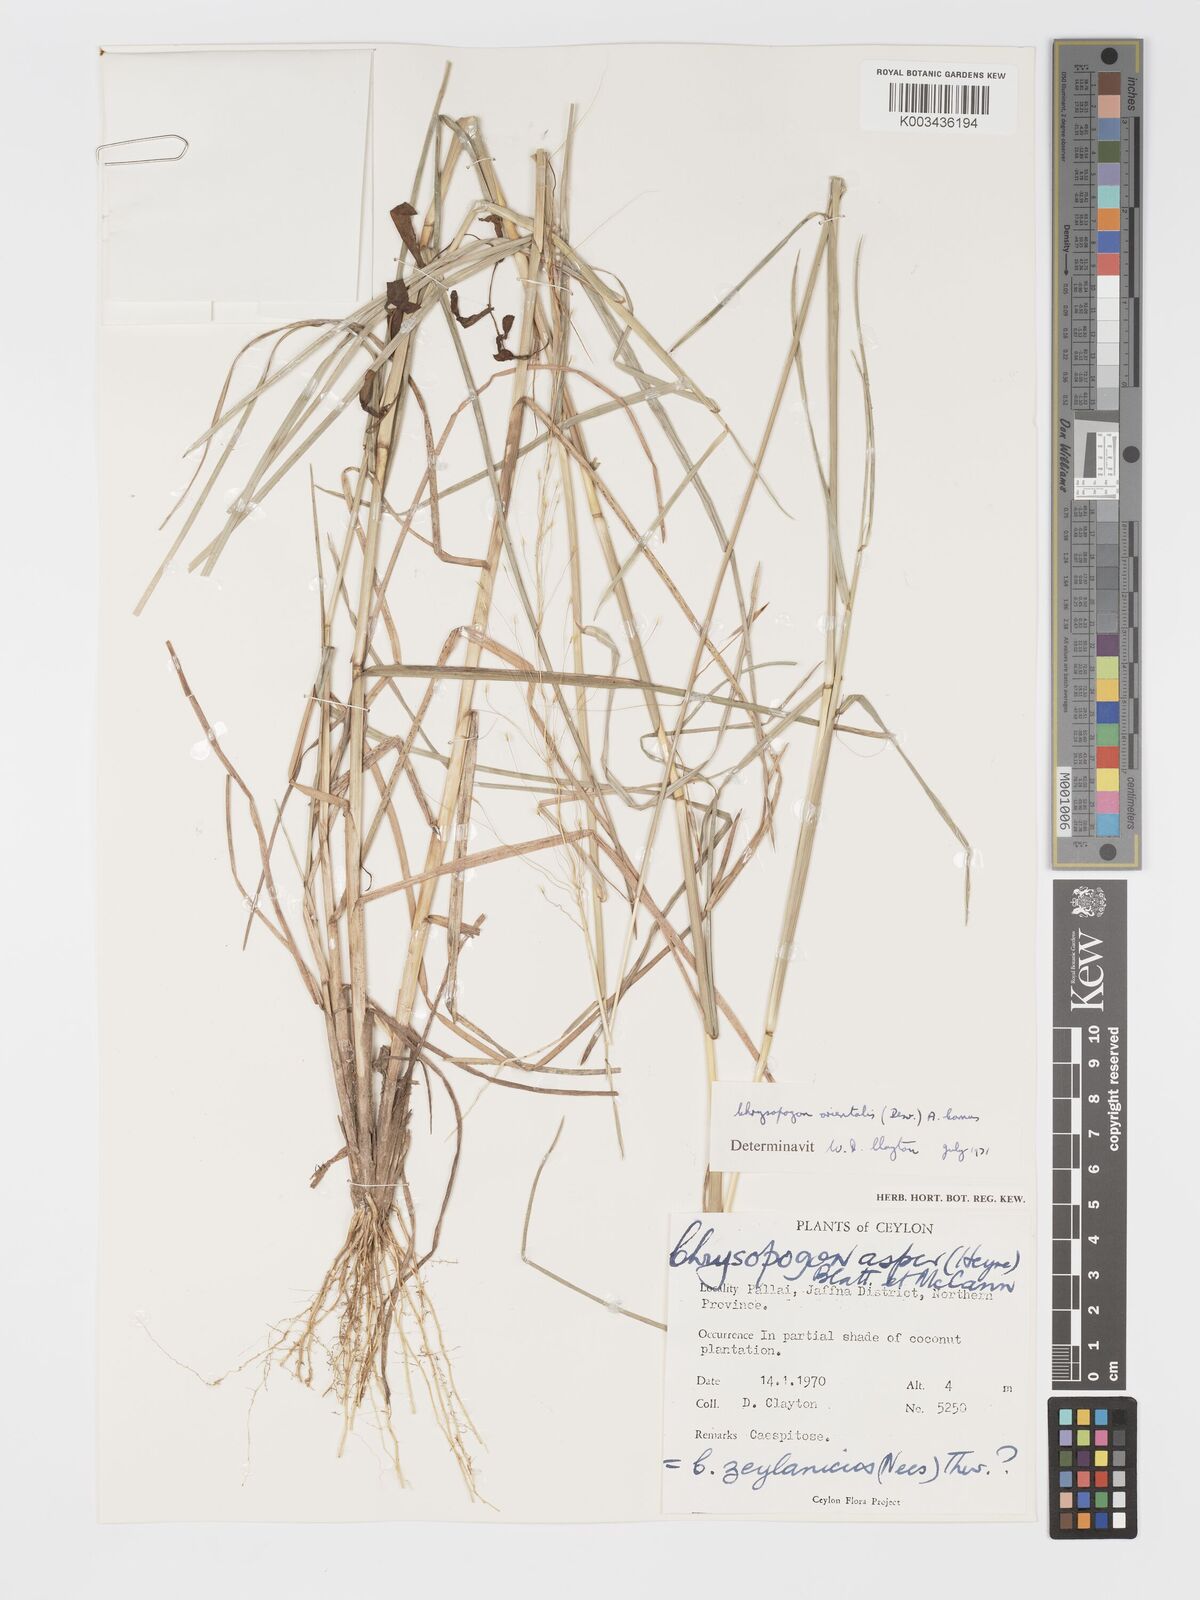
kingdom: Plantae
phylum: Tracheophyta
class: Liliopsida
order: Poales
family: Poaceae
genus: Chrysopogon
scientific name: Chrysopogon orientalis
